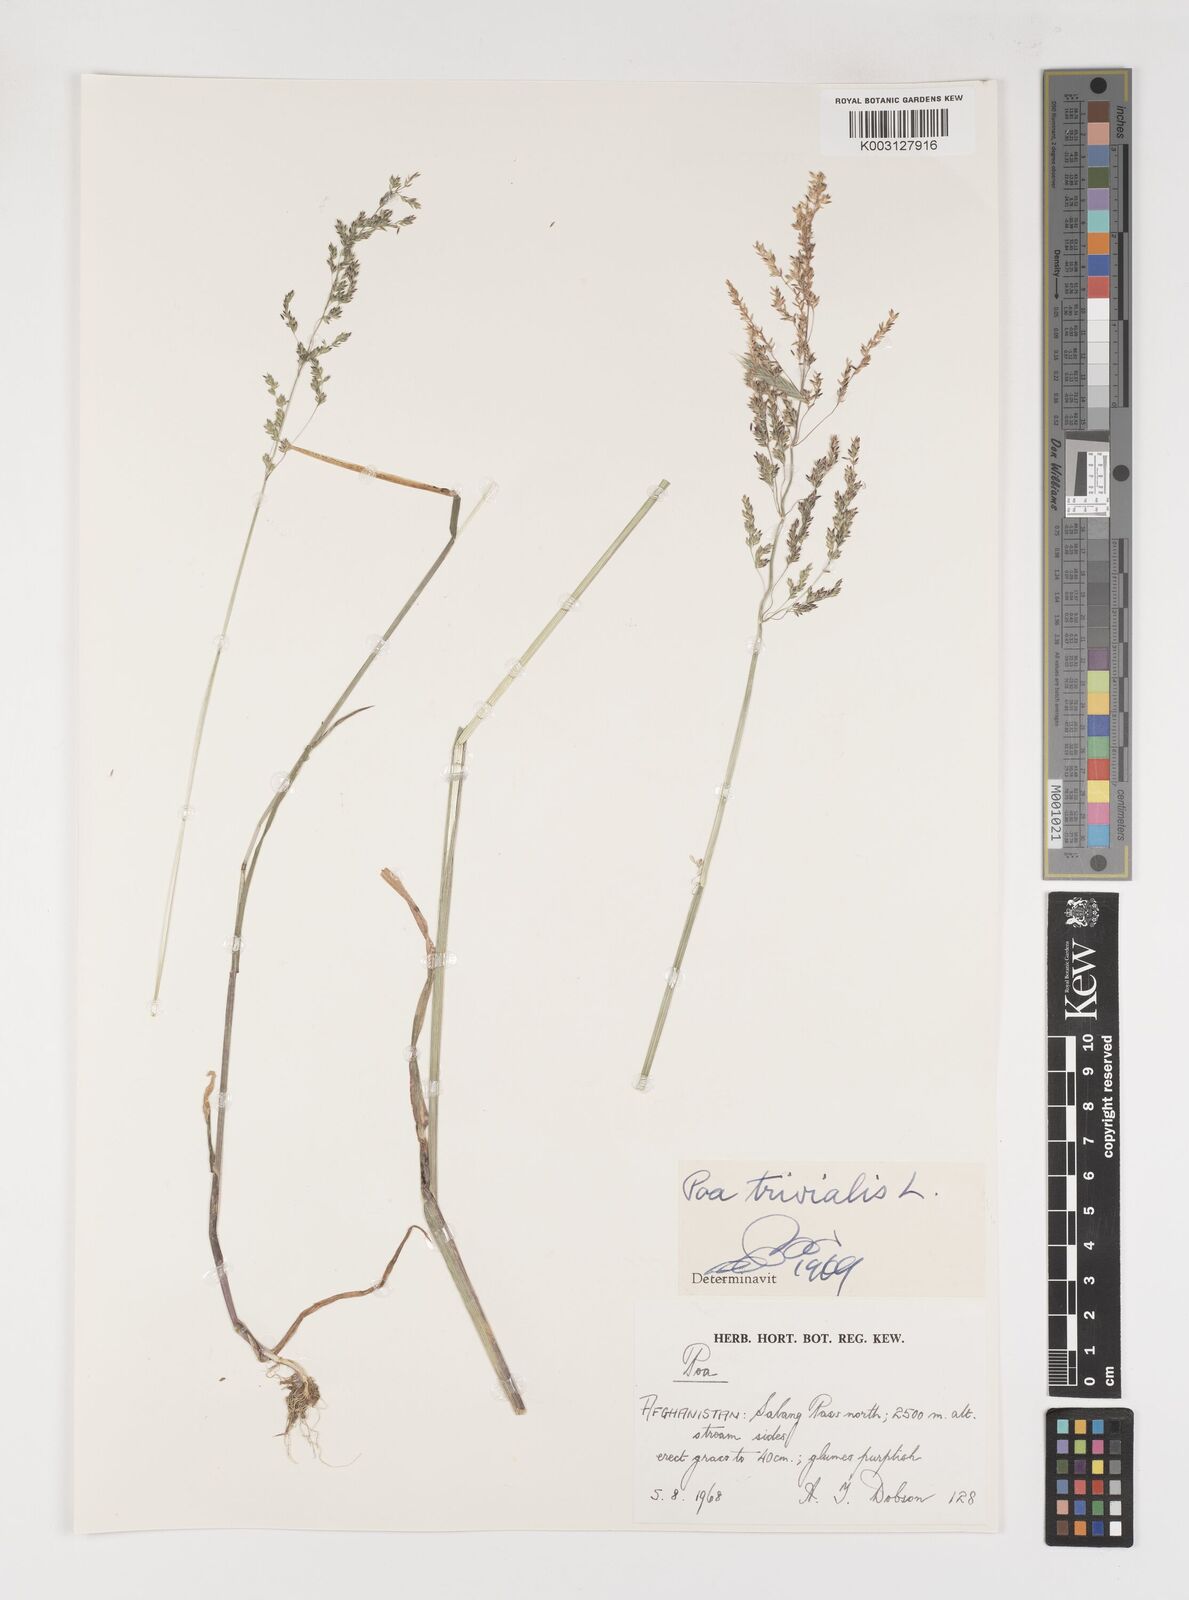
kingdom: Plantae
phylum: Tracheophyta
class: Liliopsida
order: Poales
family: Poaceae
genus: Poa
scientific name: Poa trivialis
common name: Rough bluegrass
